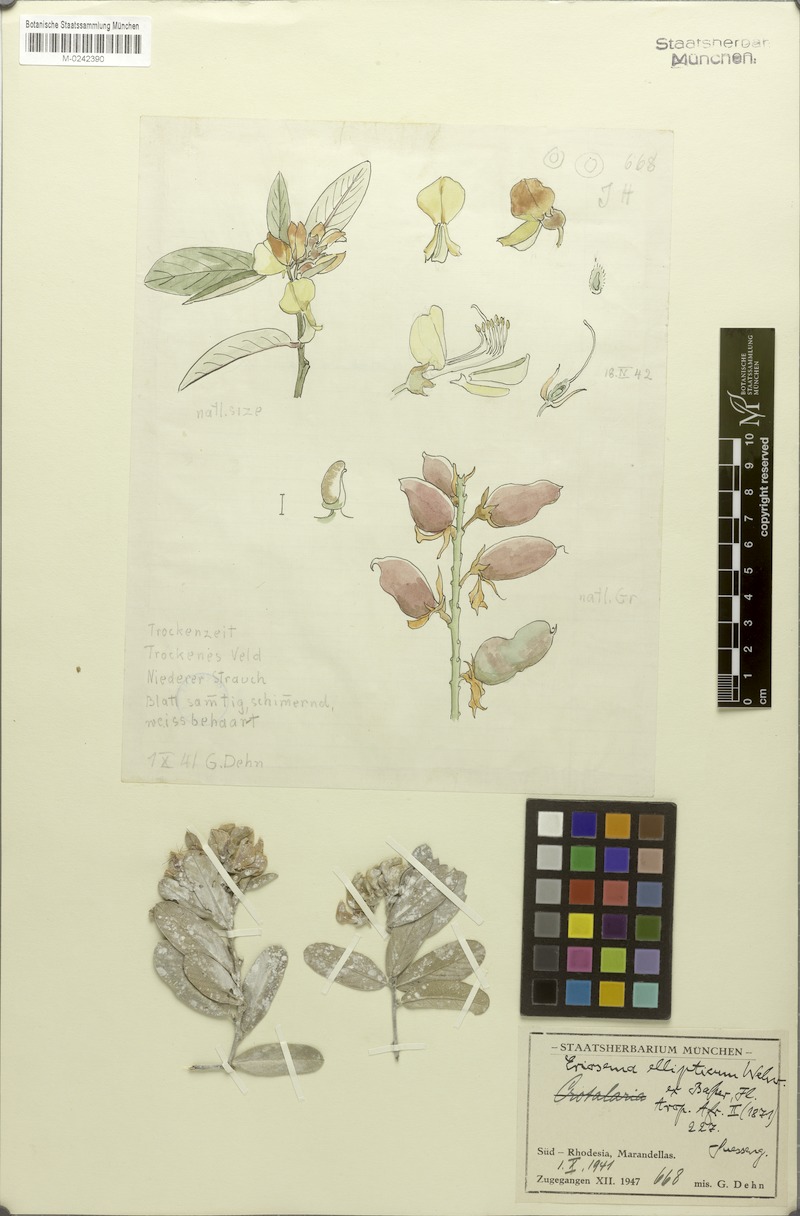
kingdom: Plantae
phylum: Tracheophyta
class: Magnoliopsida
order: Fabales
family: Fabaceae
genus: Eriosema
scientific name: Eriosema ellipticum
